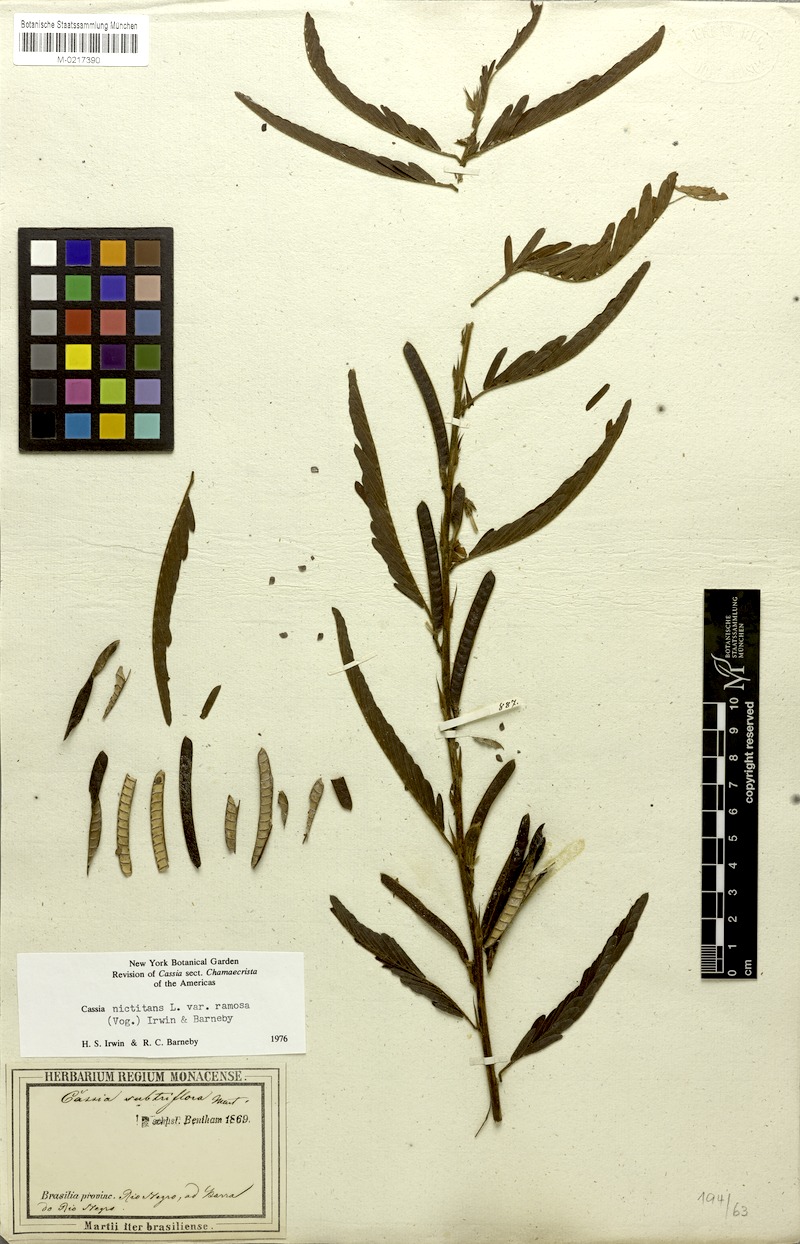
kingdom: Plantae
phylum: Tracheophyta
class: Magnoliopsida
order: Fabales
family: Fabaceae
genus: Chamaecrista
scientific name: Chamaecrista nictitans
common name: Sensitive cassia
